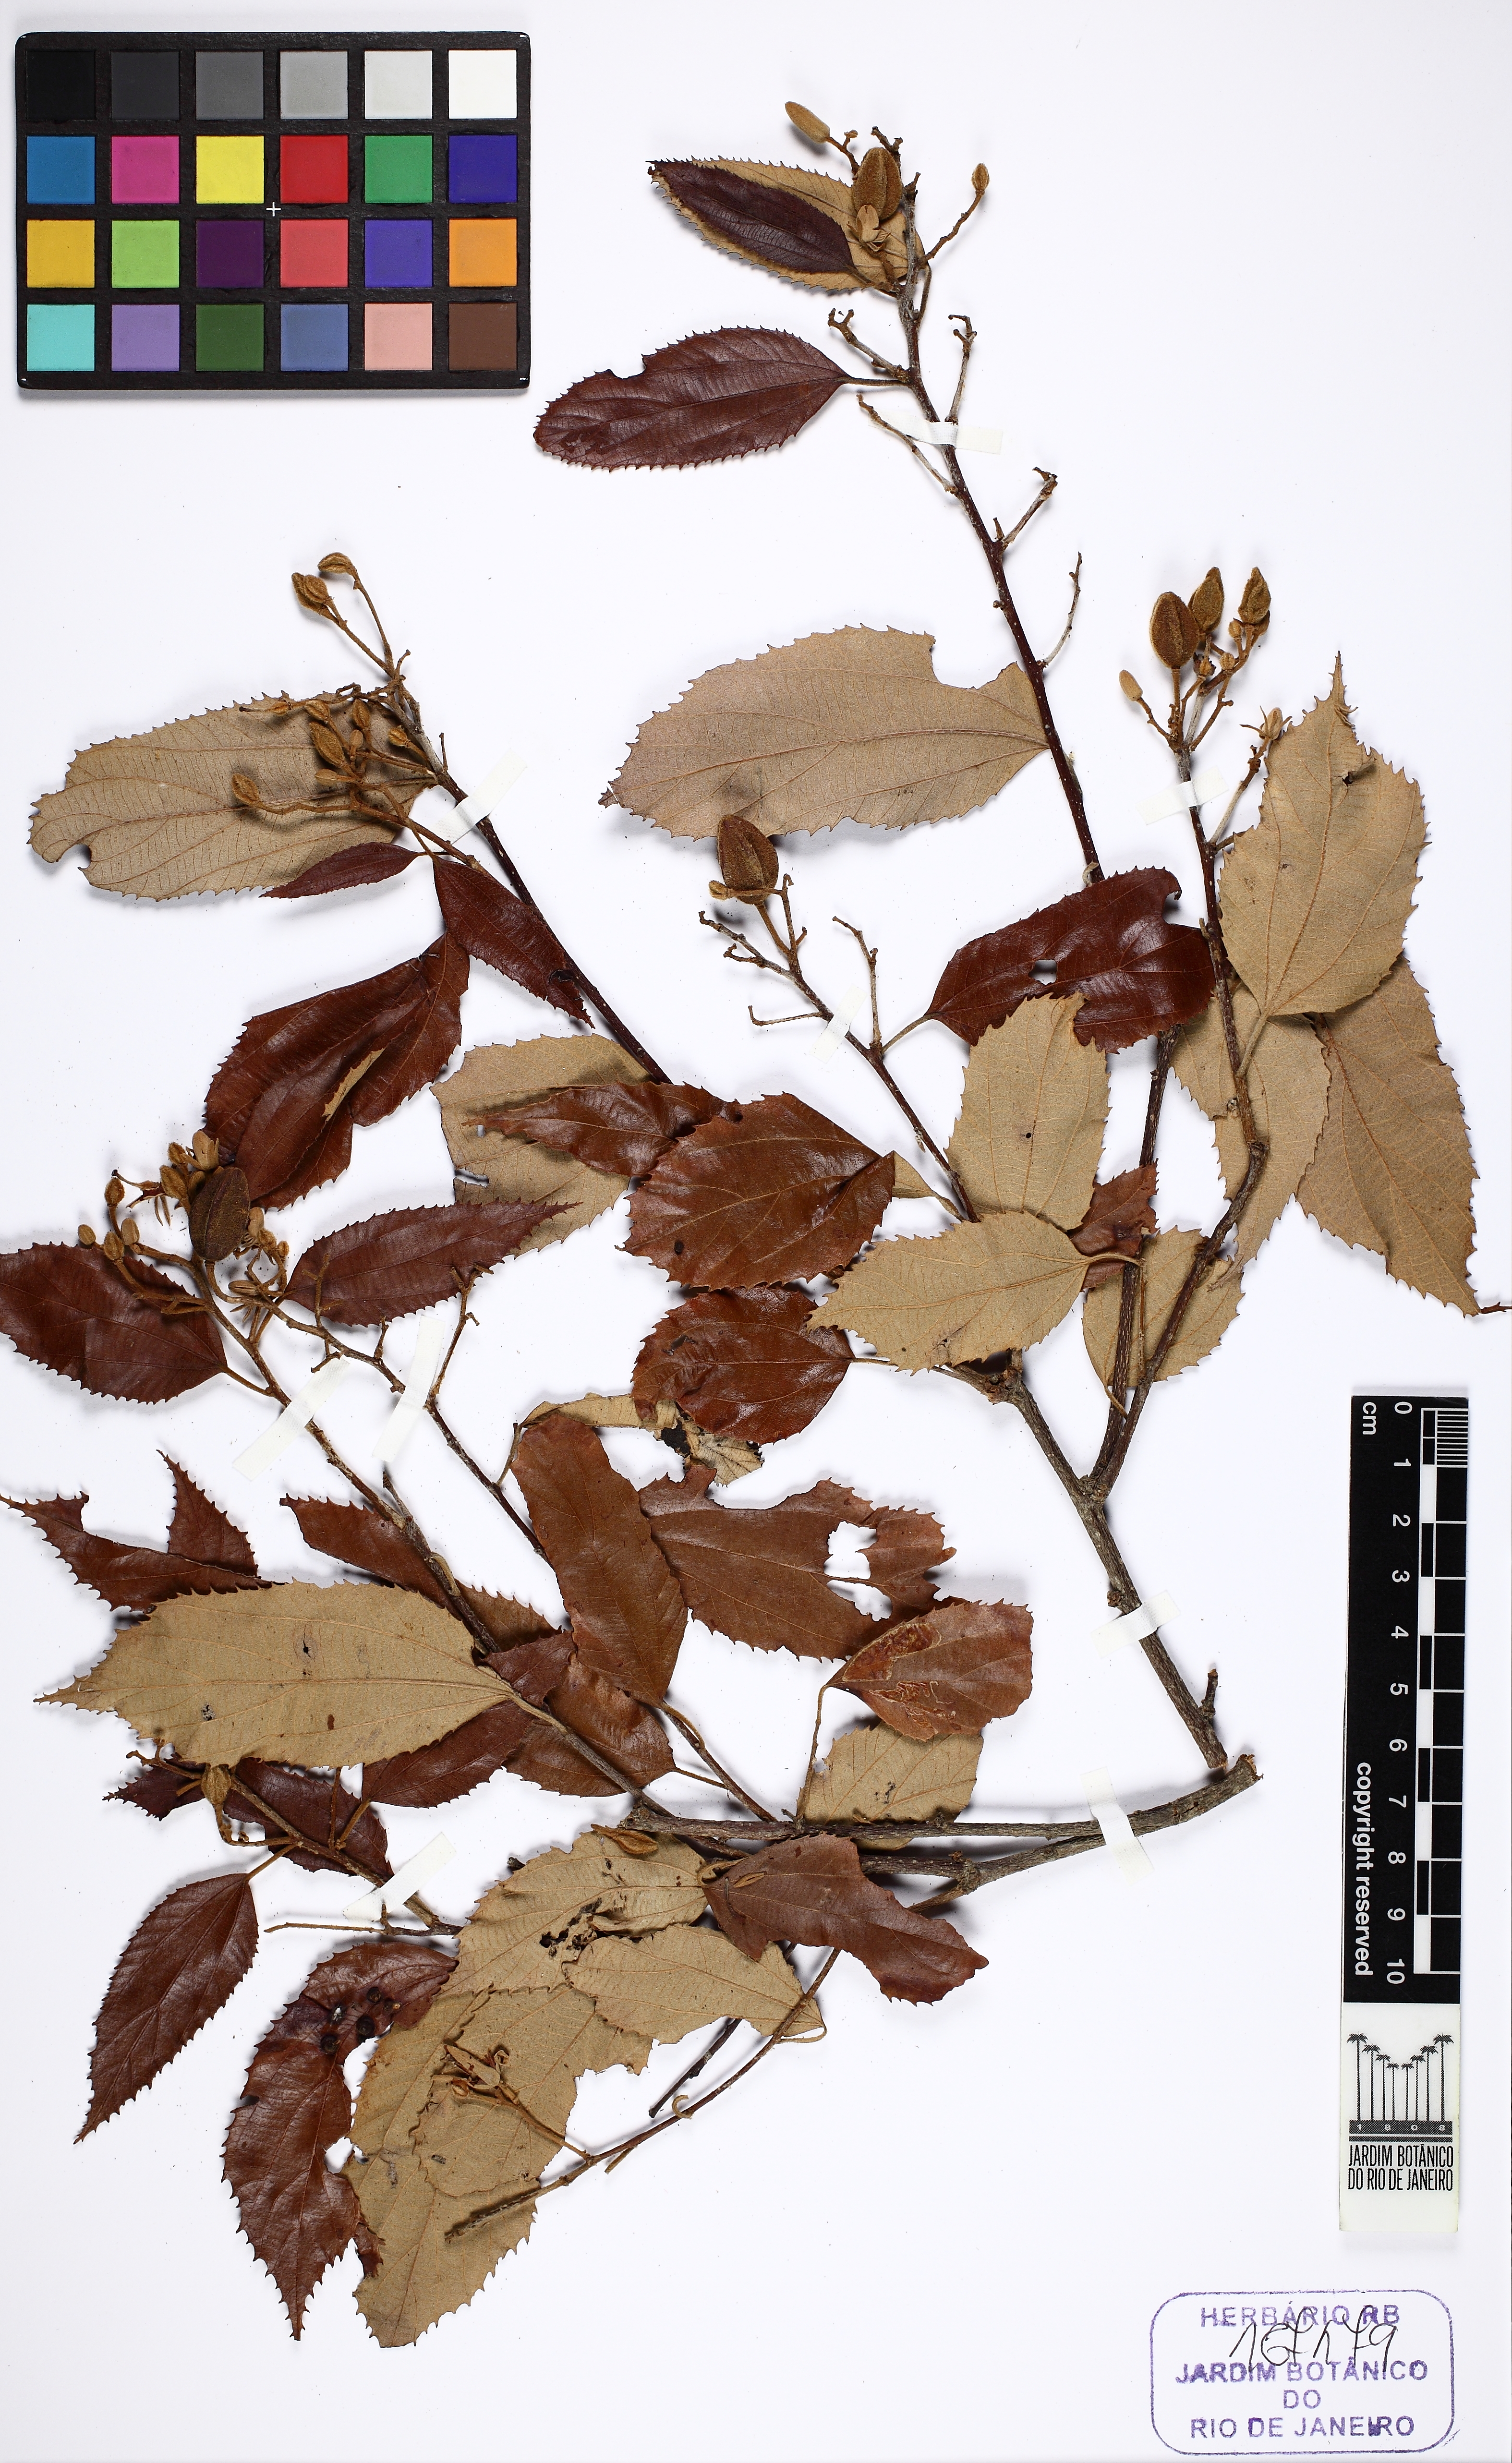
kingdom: Plantae
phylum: Tracheophyta
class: Magnoliopsida
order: Malvales
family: Malvaceae
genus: Luehea
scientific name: Luehea conwentzii
